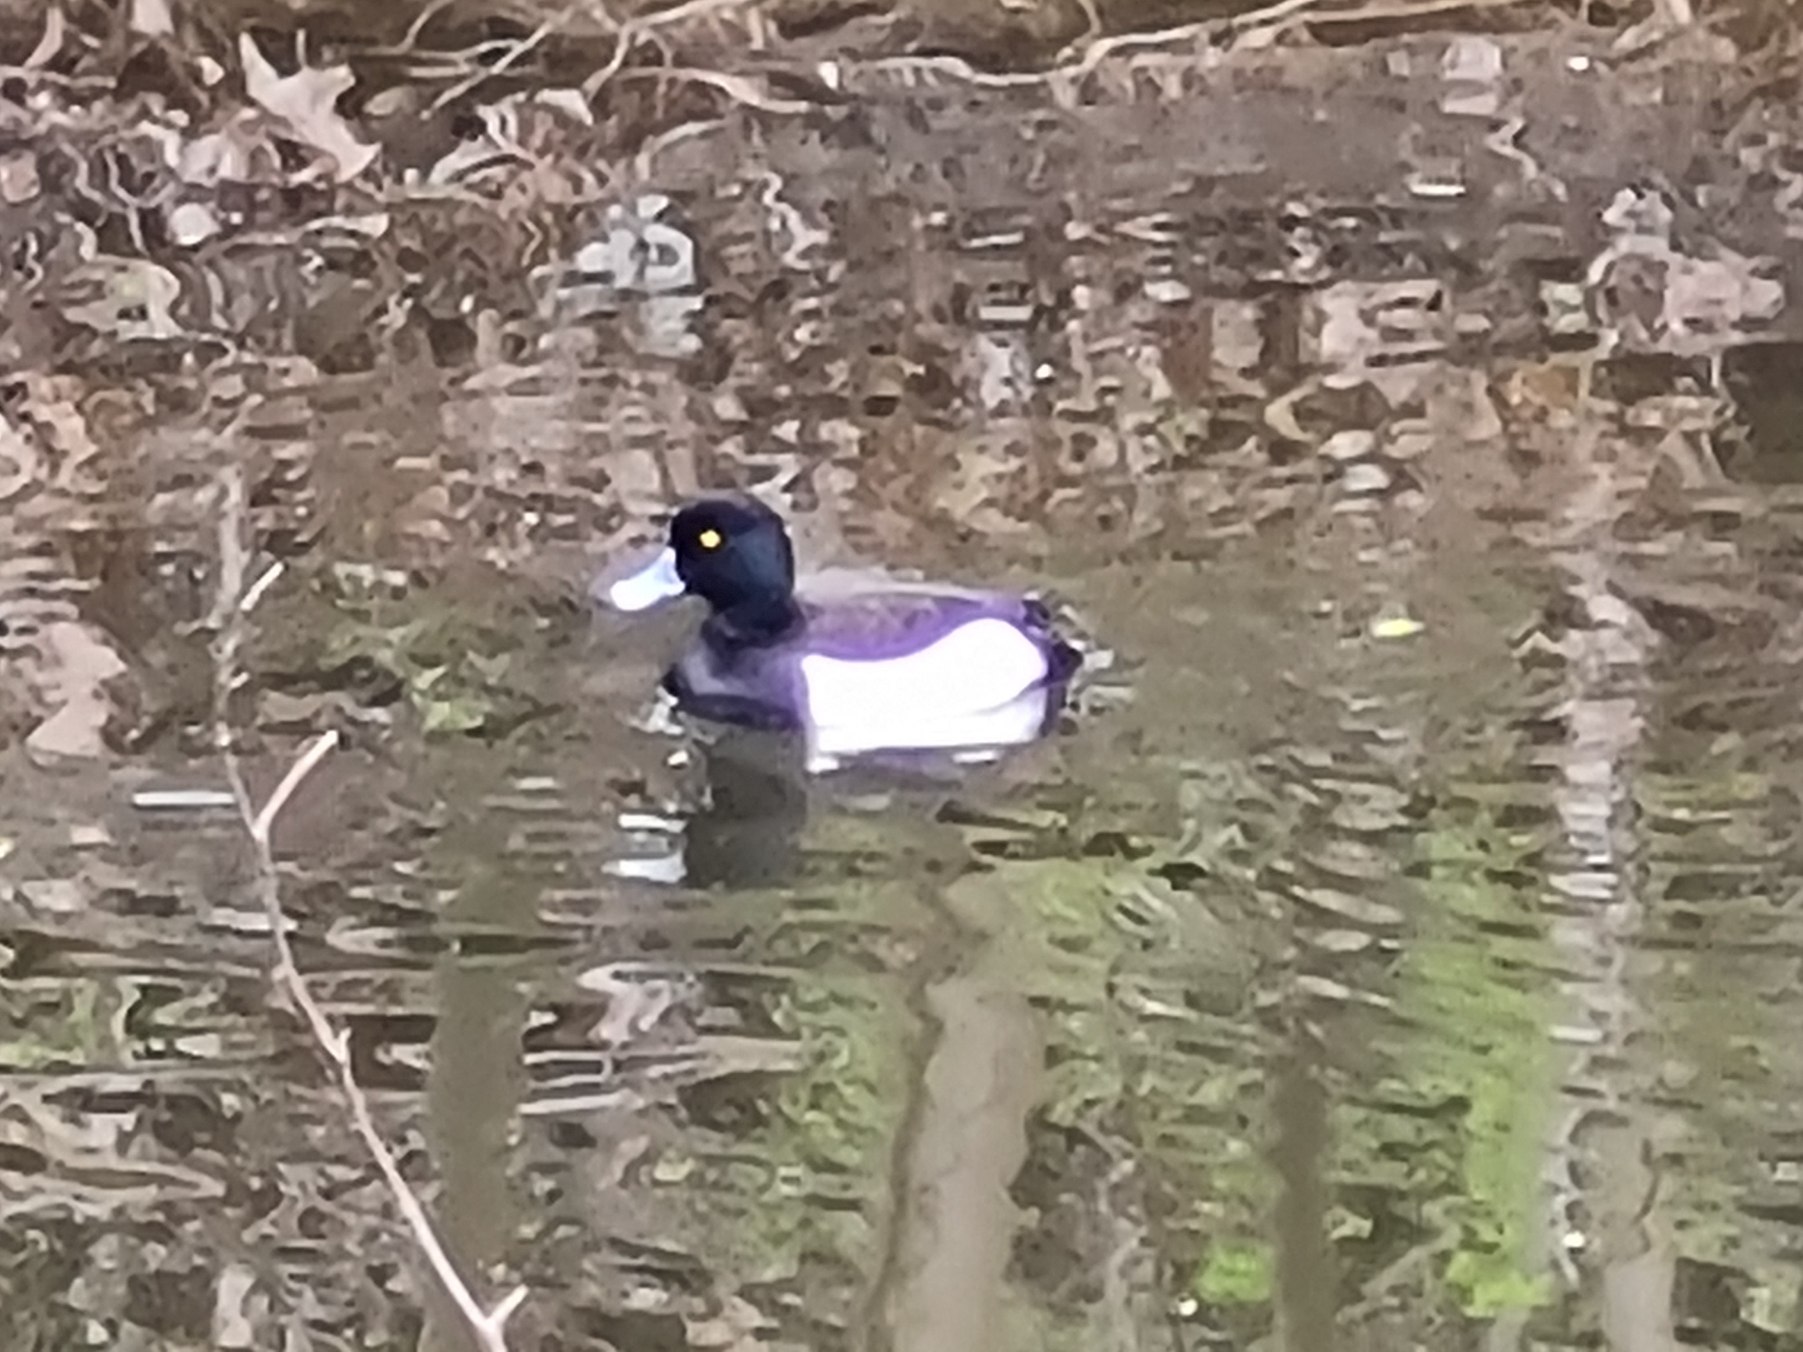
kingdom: Animalia
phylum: Chordata
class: Aves
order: Anseriformes
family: Anatidae
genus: Aythya
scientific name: Aythya fuligula
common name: Troldand
